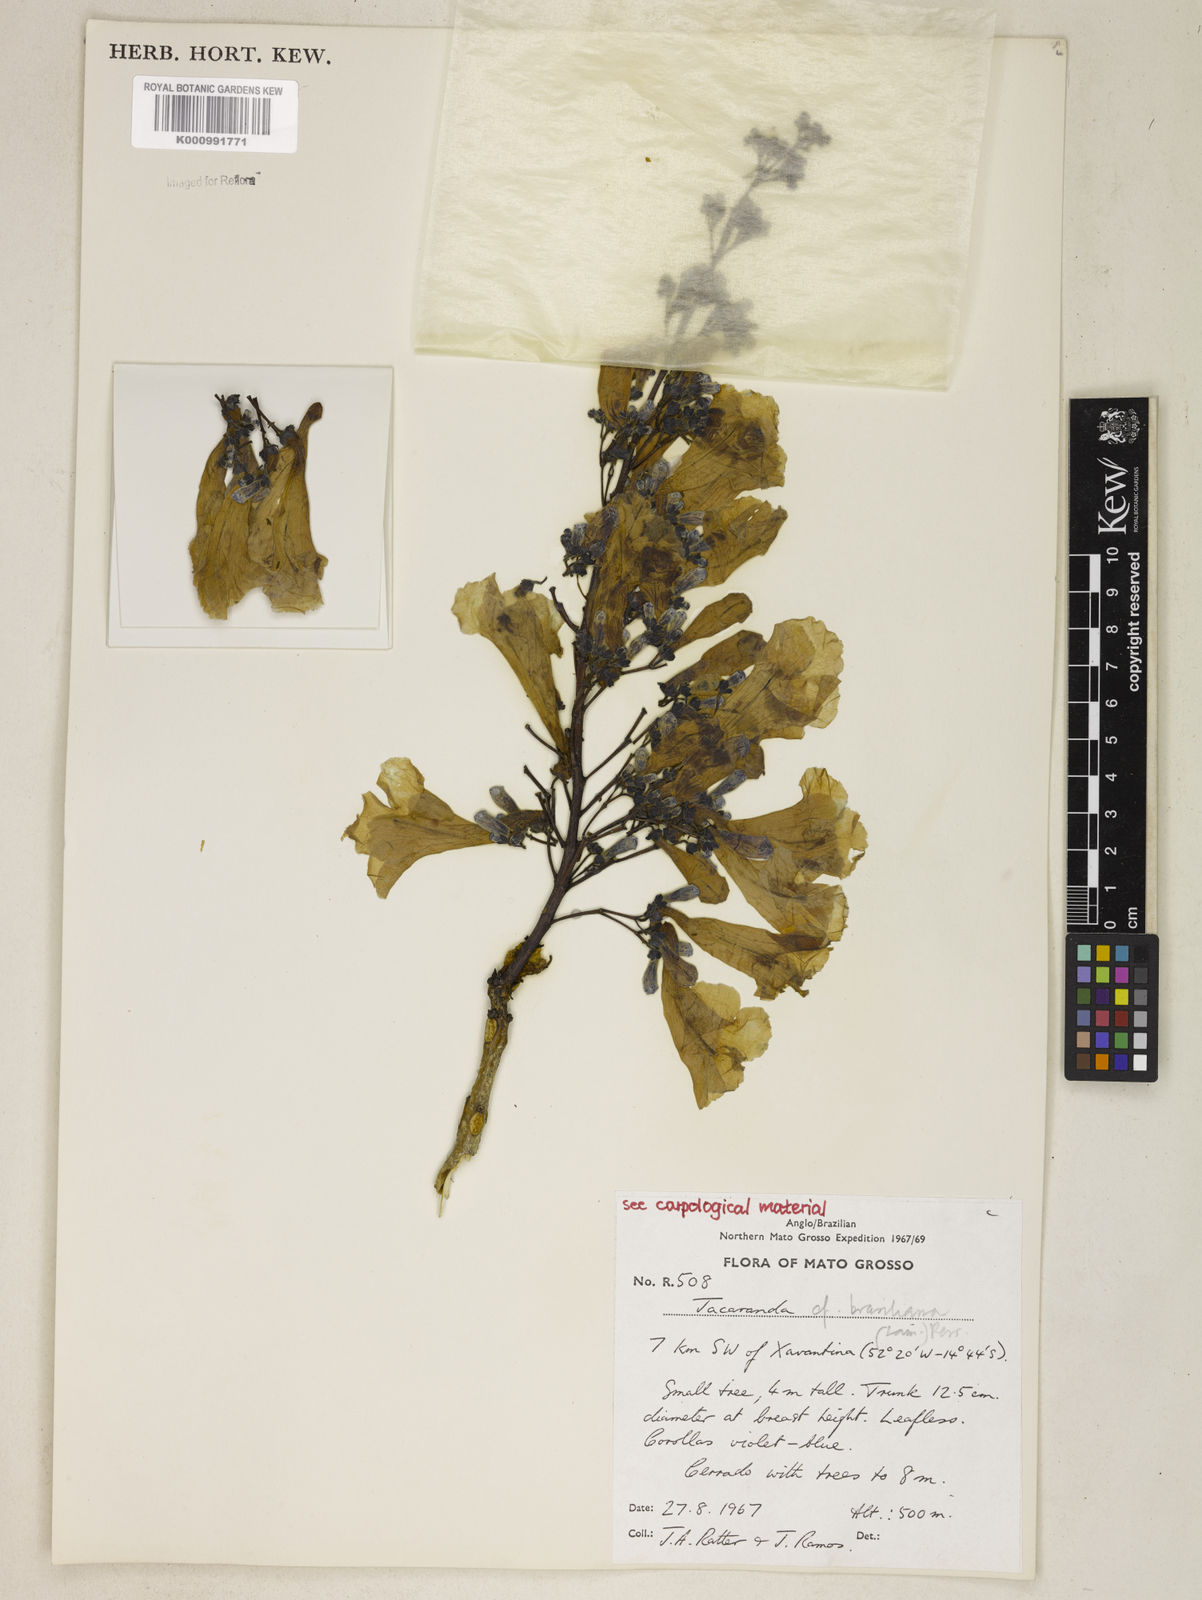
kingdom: Plantae
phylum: Tracheophyta
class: Magnoliopsida
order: Lamiales
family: Bignoniaceae
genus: Jacaranda
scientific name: Jacaranda brasiliana
